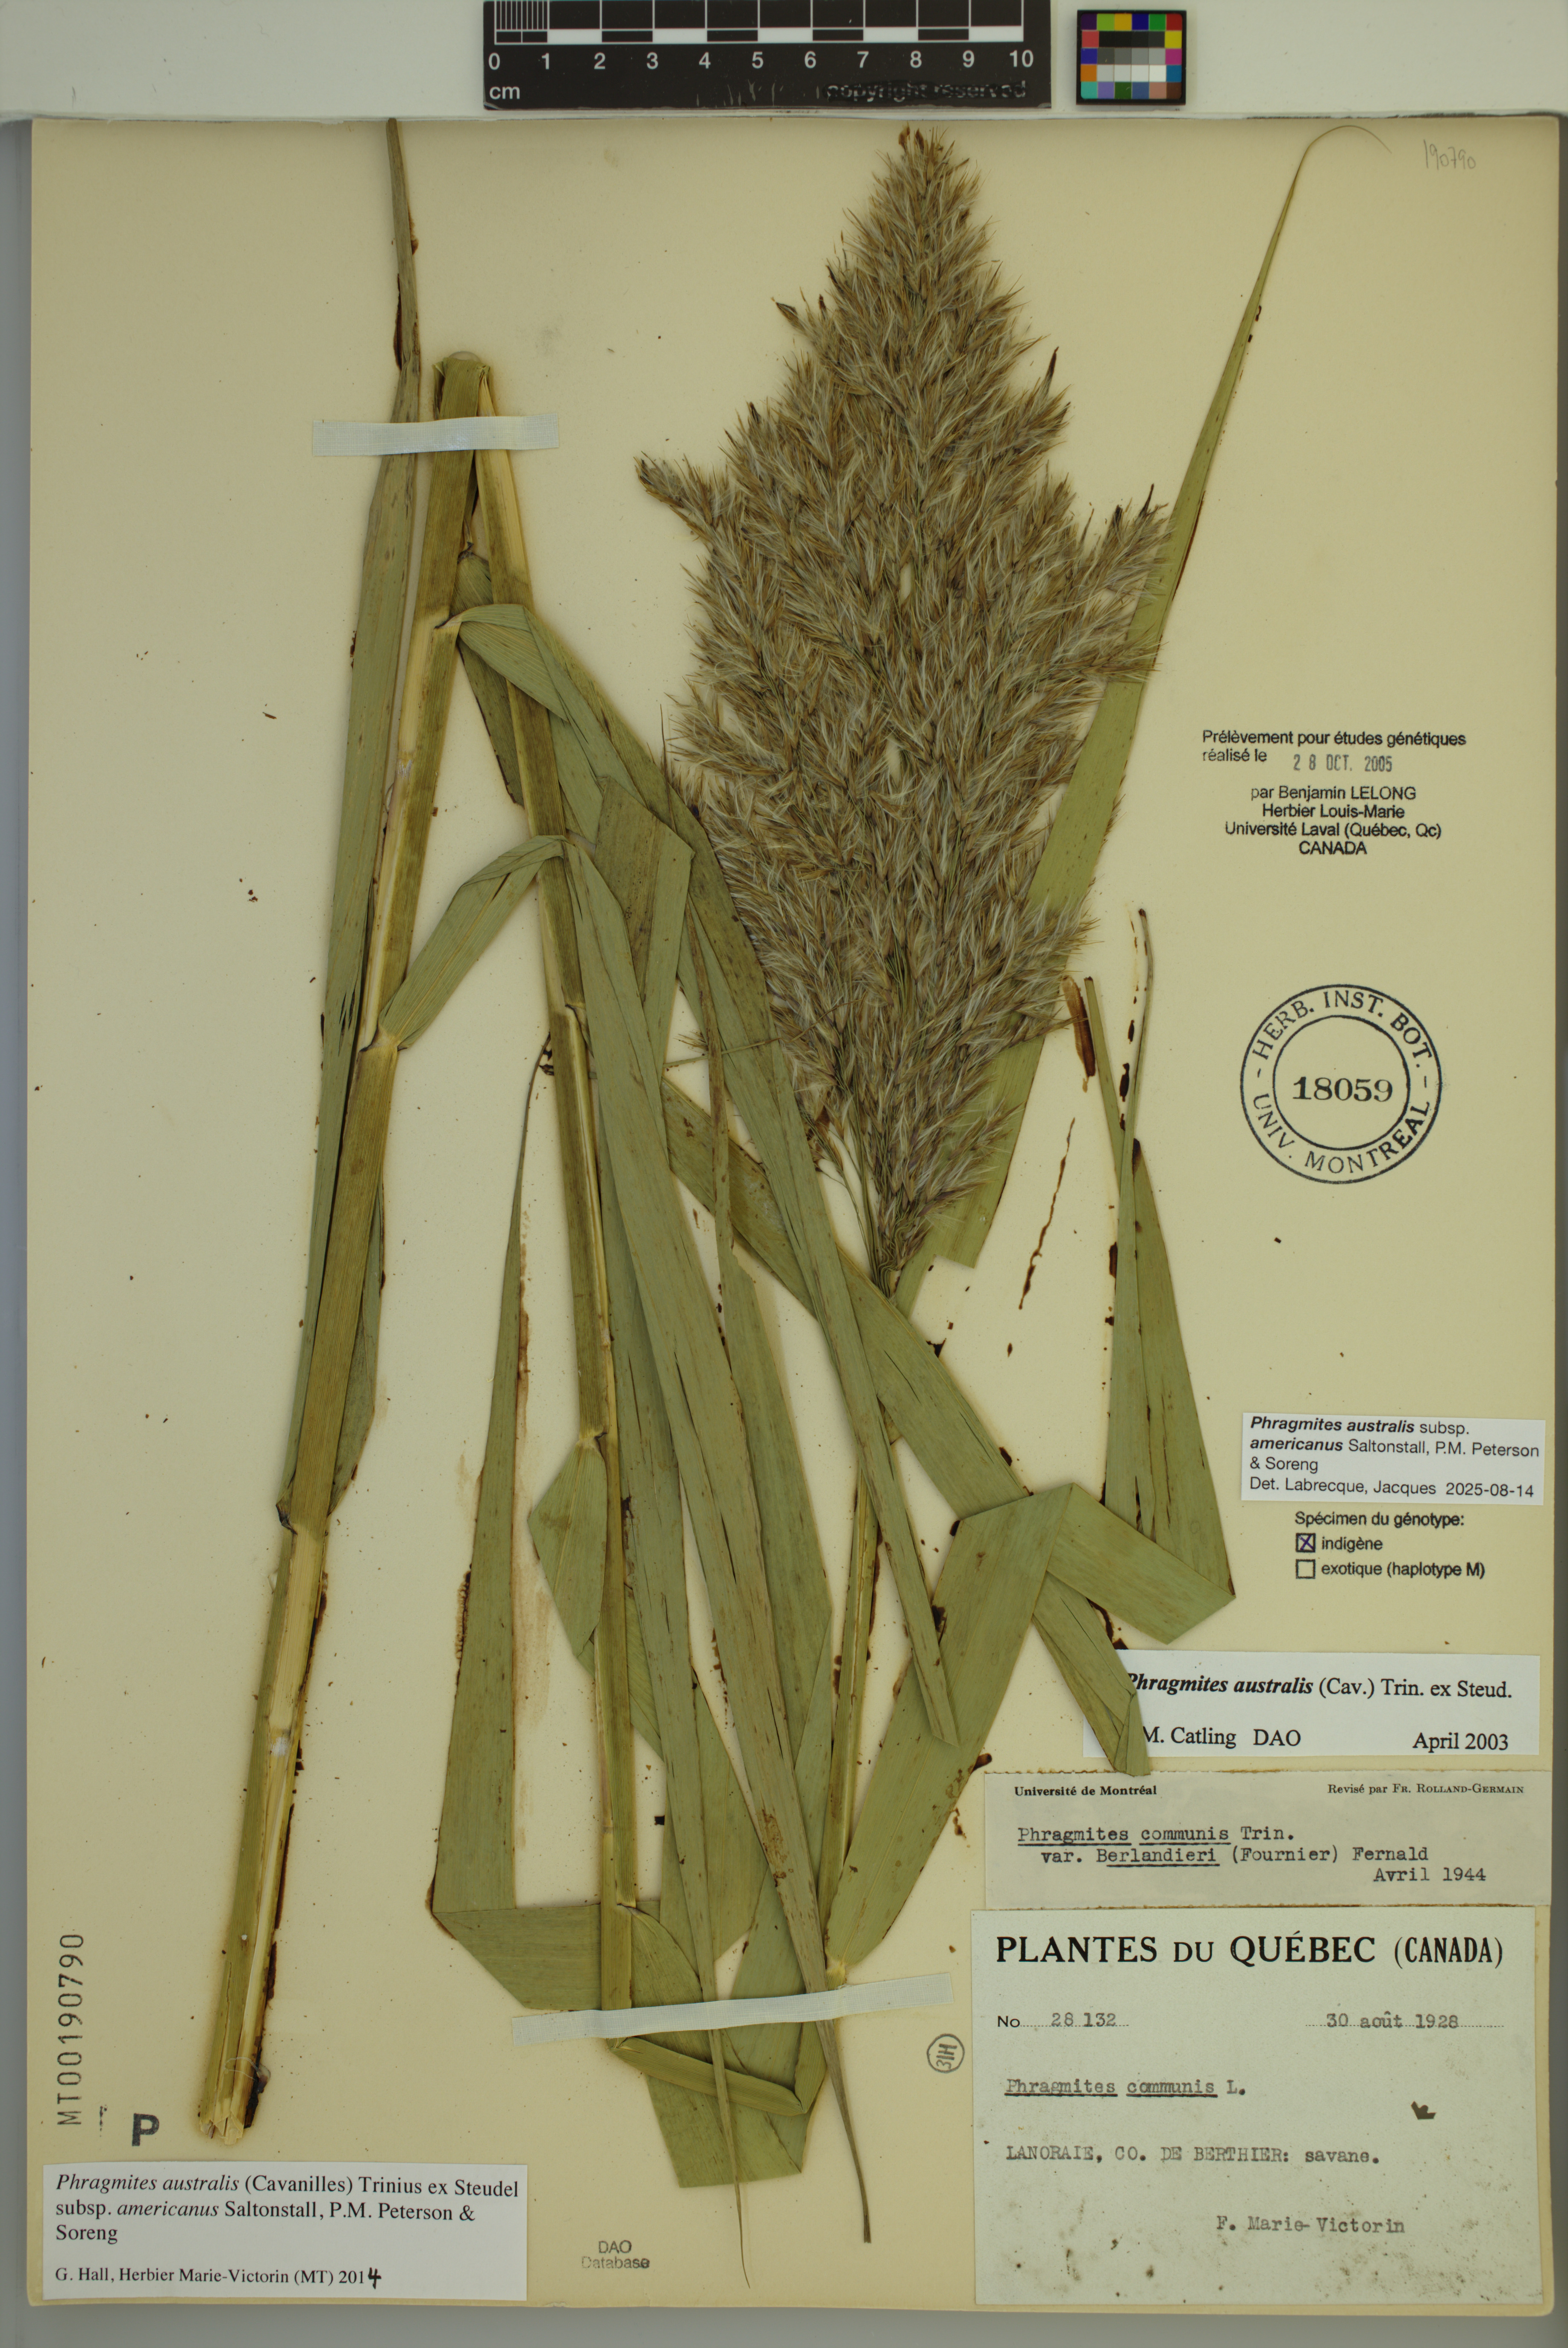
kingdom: Plantae
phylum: Tracheophyta
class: Liliopsida
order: Poales
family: Poaceae
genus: Phragmites
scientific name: Phragmites australis
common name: Common reed
